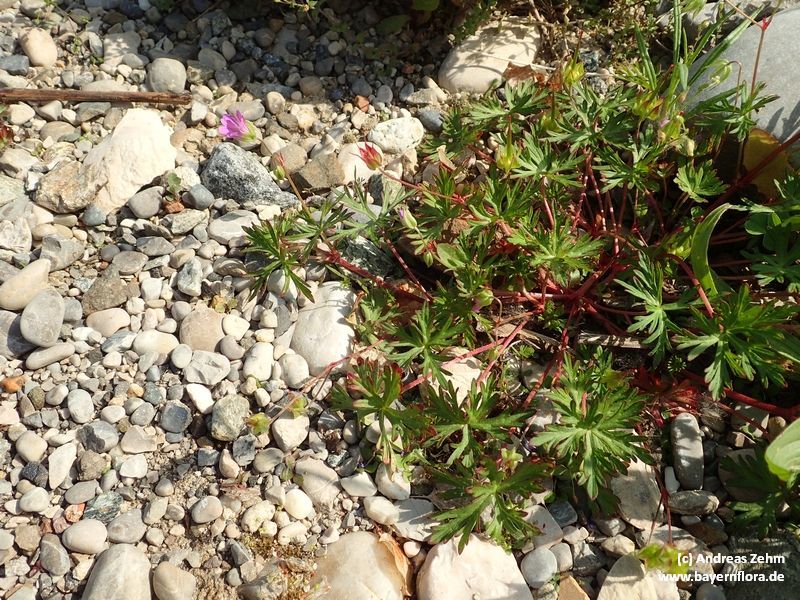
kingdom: Plantae
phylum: Tracheophyta
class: Magnoliopsida
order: Geraniales
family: Geraniaceae
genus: Geranium
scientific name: Geranium columbinum
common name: Long-stalked crane's-bill
